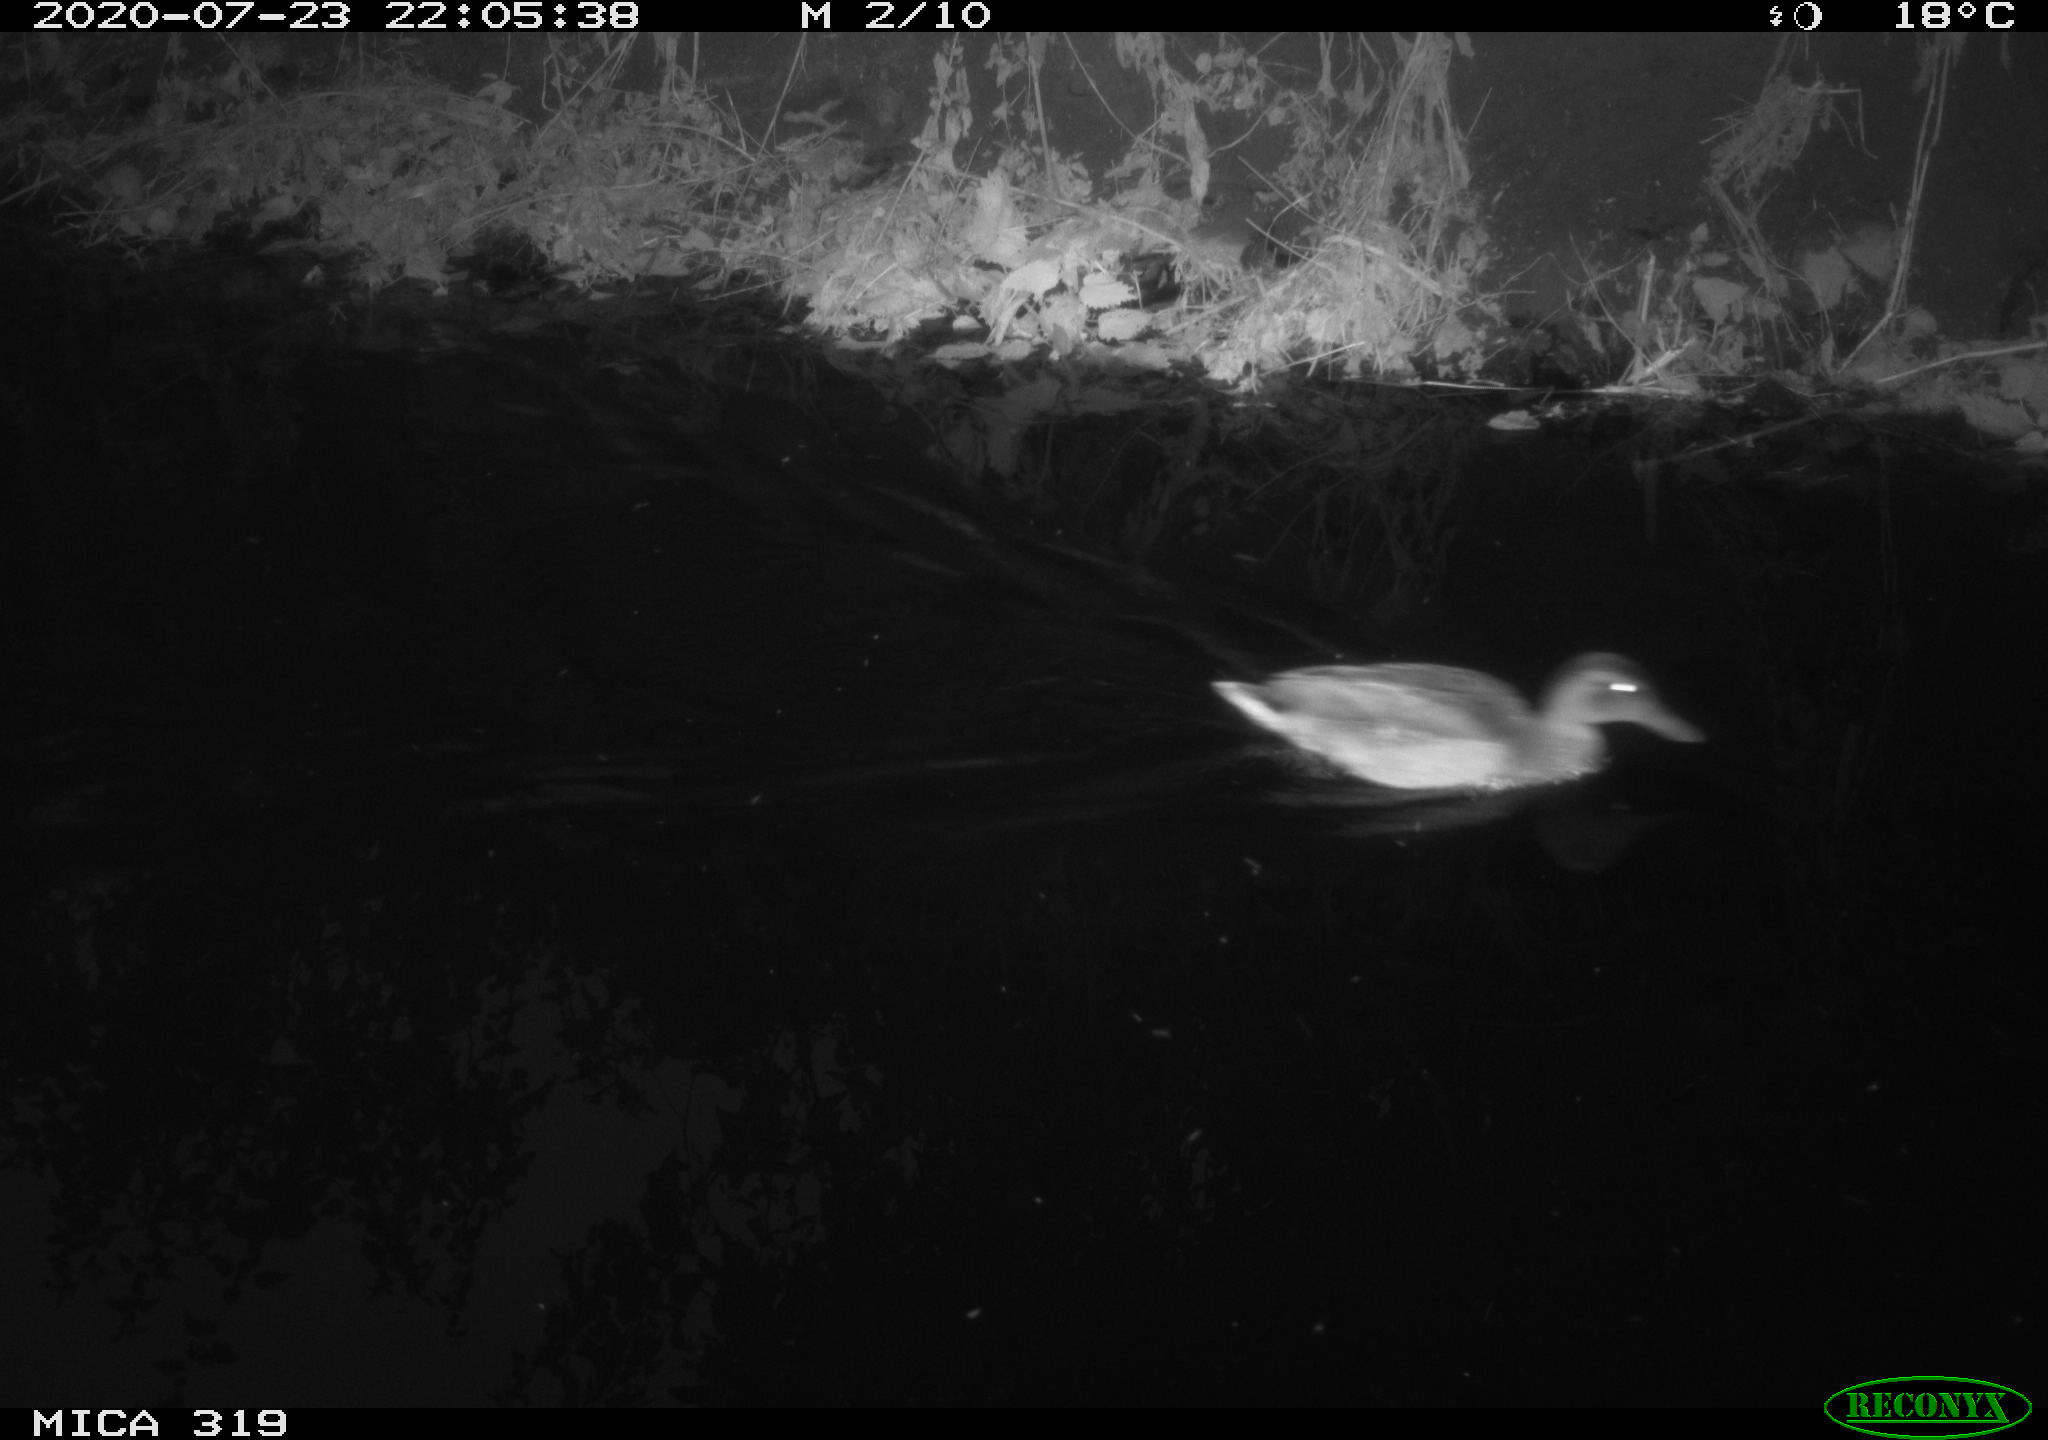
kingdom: Animalia
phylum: Chordata
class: Aves
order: Anseriformes
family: Anatidae
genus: Anas
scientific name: Anas platyrhynchos
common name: Mallard
